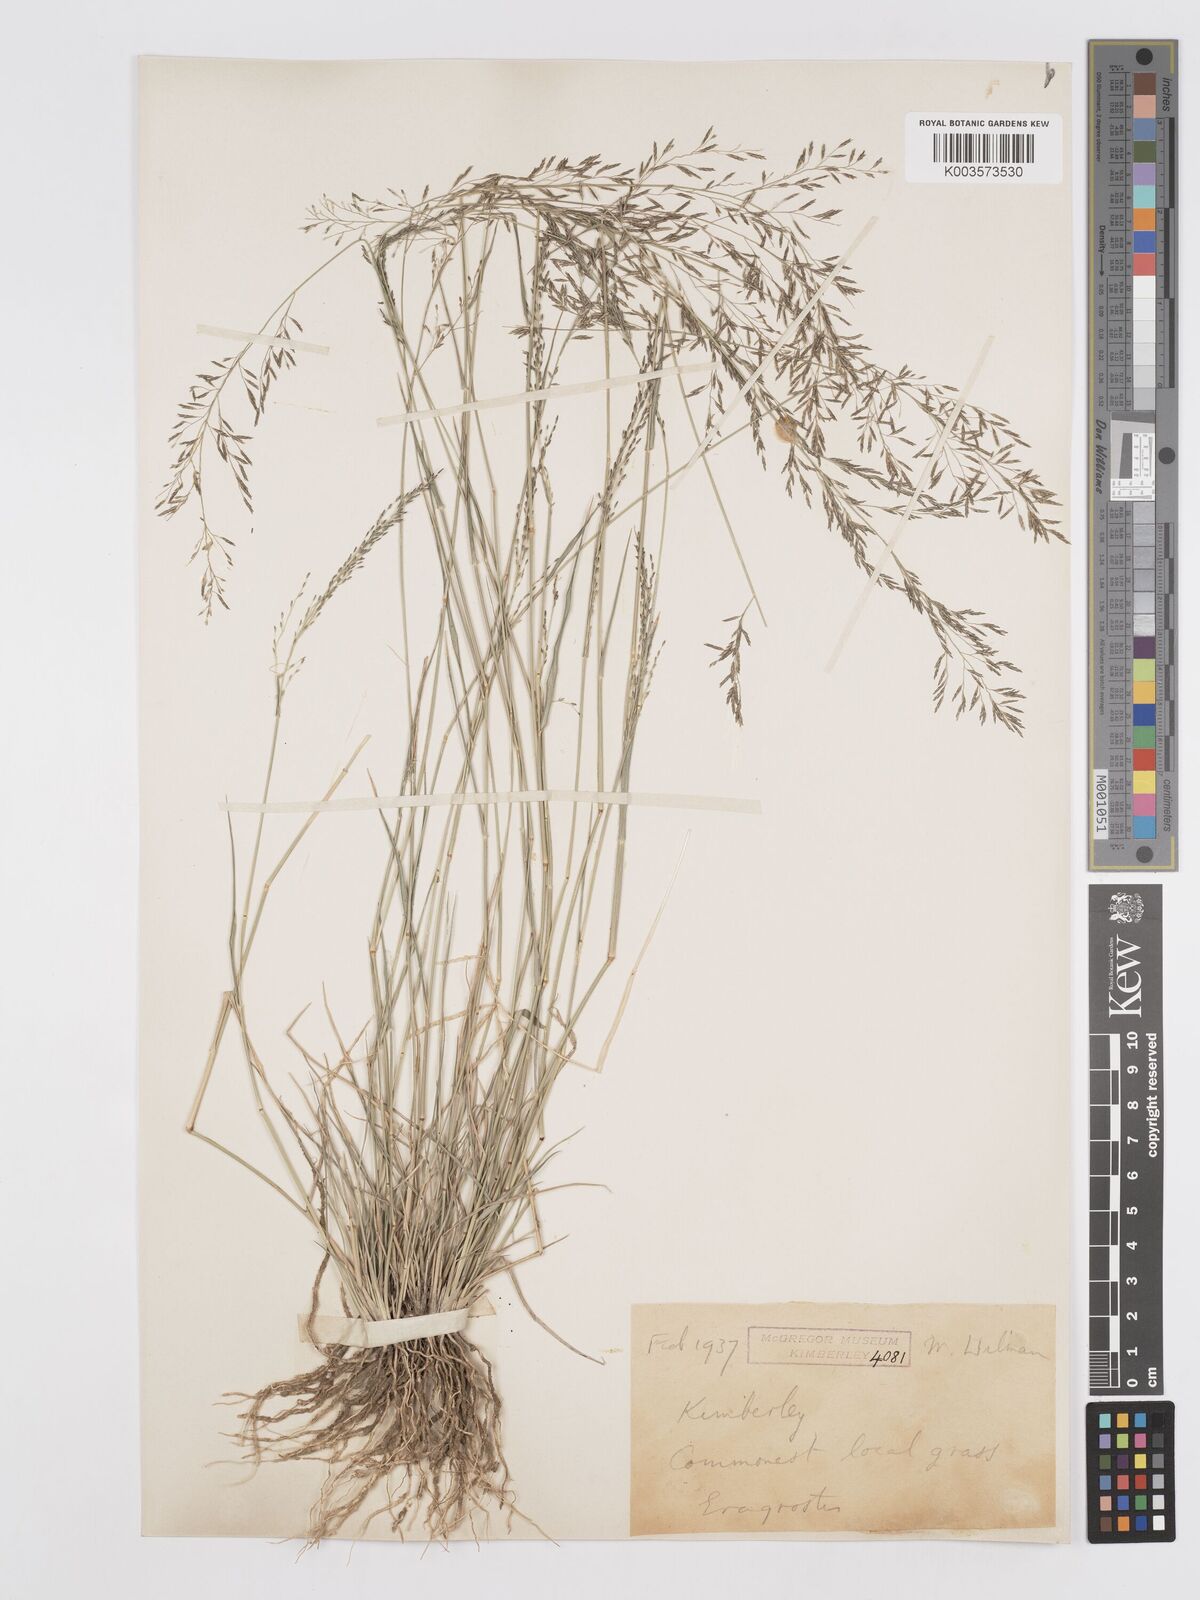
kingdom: Plantae
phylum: Tracheophyta
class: Liliopsida
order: Poales
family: Poaceae
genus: Eragrostis
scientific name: Eragrostis lehmanniana
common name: Lehmann lovegrass
